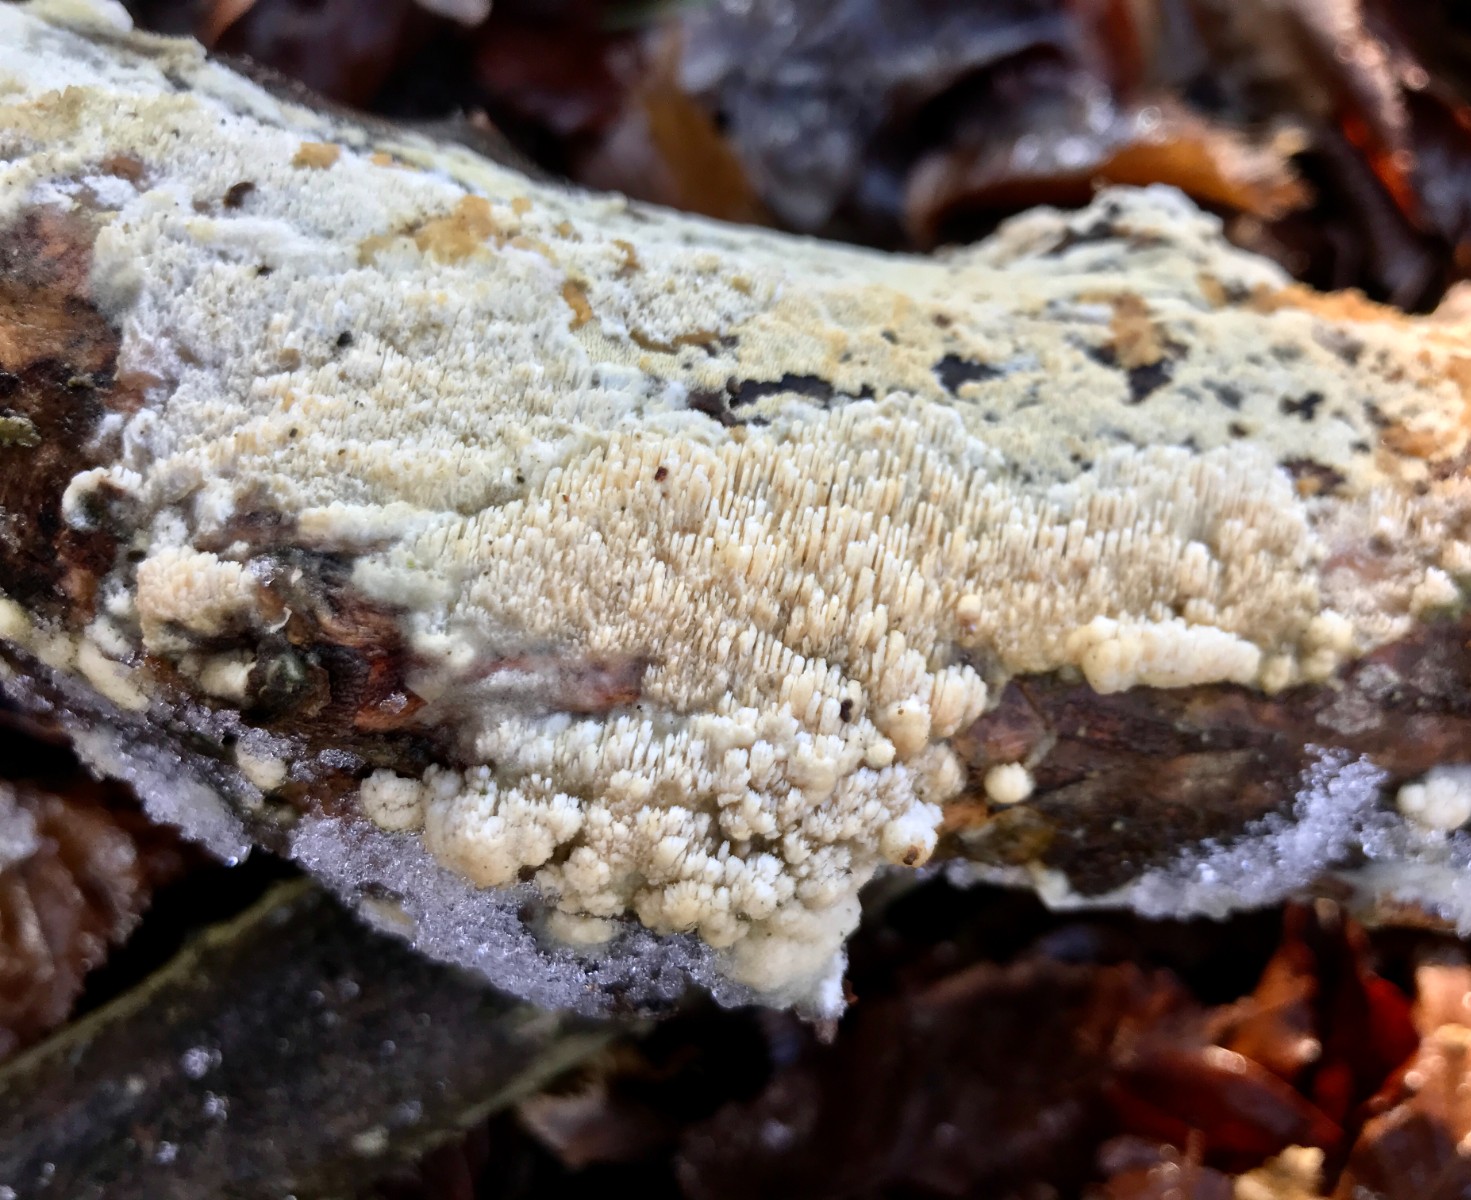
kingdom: Fungi
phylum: Basidiomycota
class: Agaricomycetes
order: Hymenochaetales
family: Schizoporaceae
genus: Schizopora
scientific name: Schizopora paradoxa
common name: hvid tandsvamp
